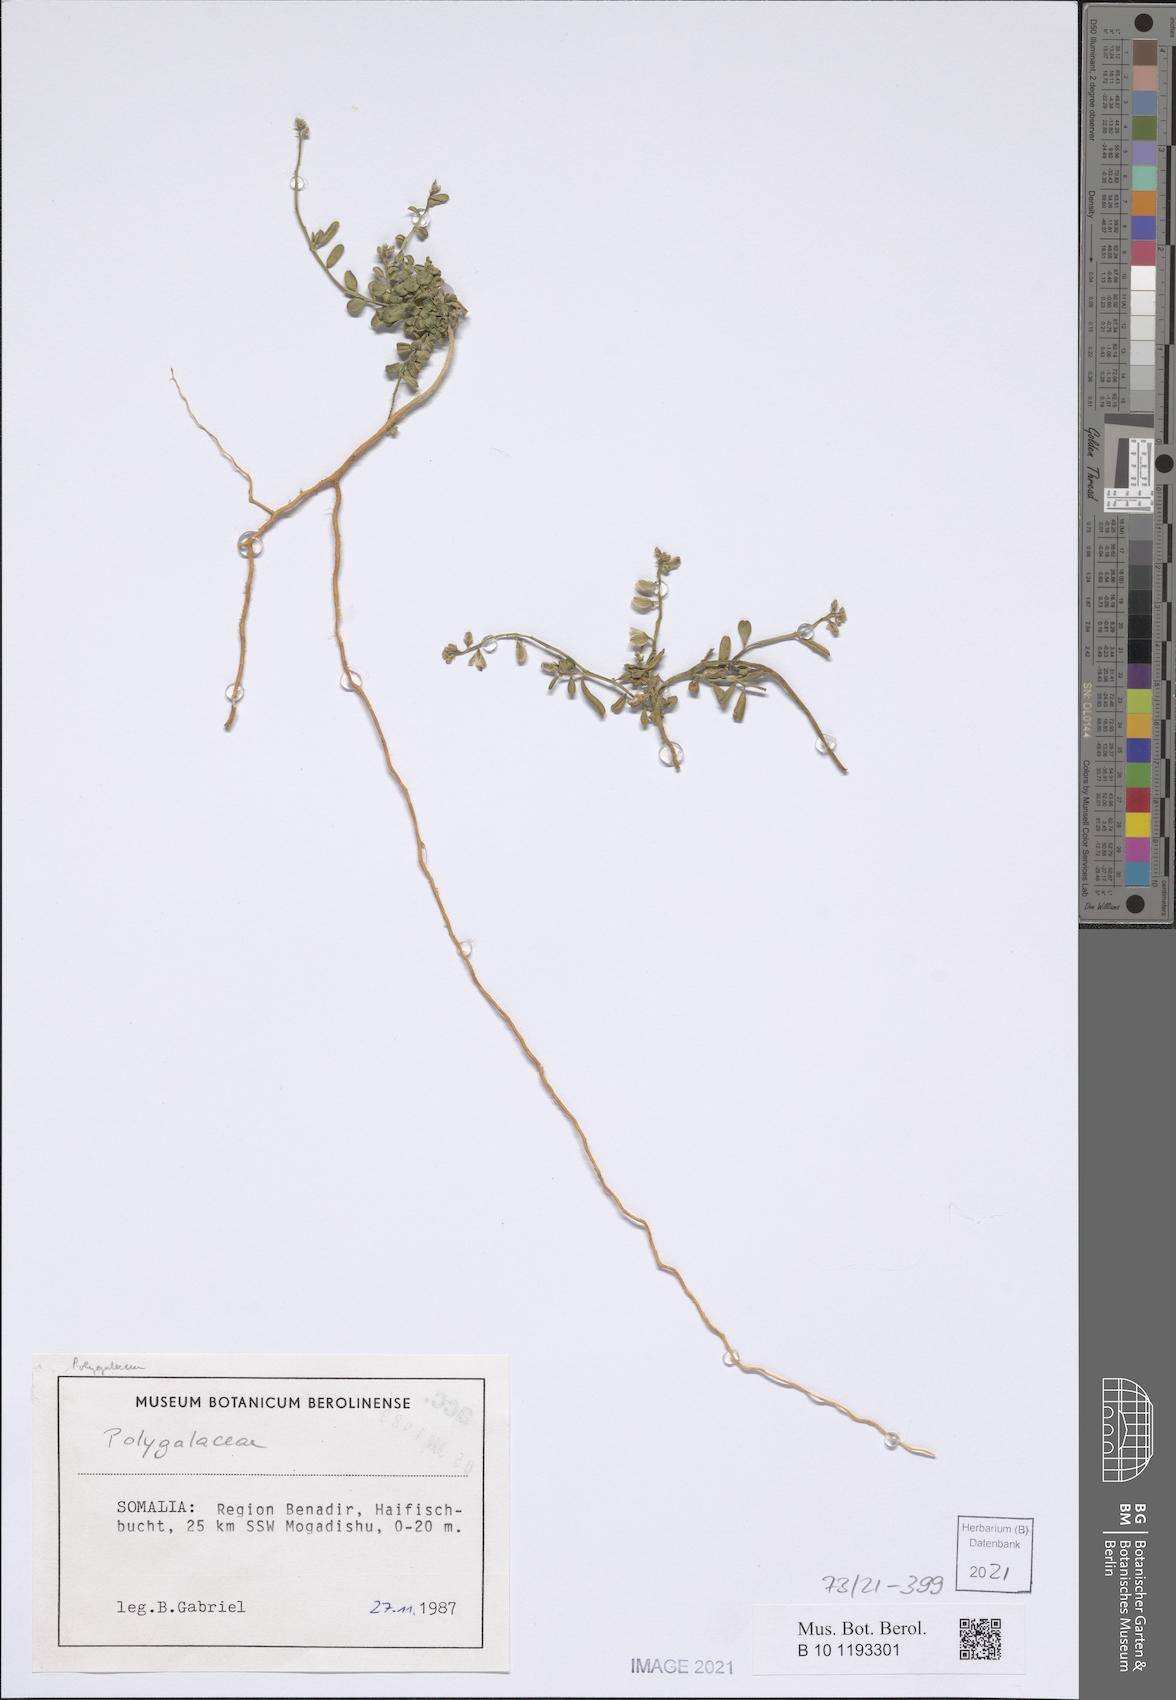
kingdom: Plantae
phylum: Tracheophyta
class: Magnoliopsida
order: Fabales
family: Polygalaceae
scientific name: Polygalaceae
